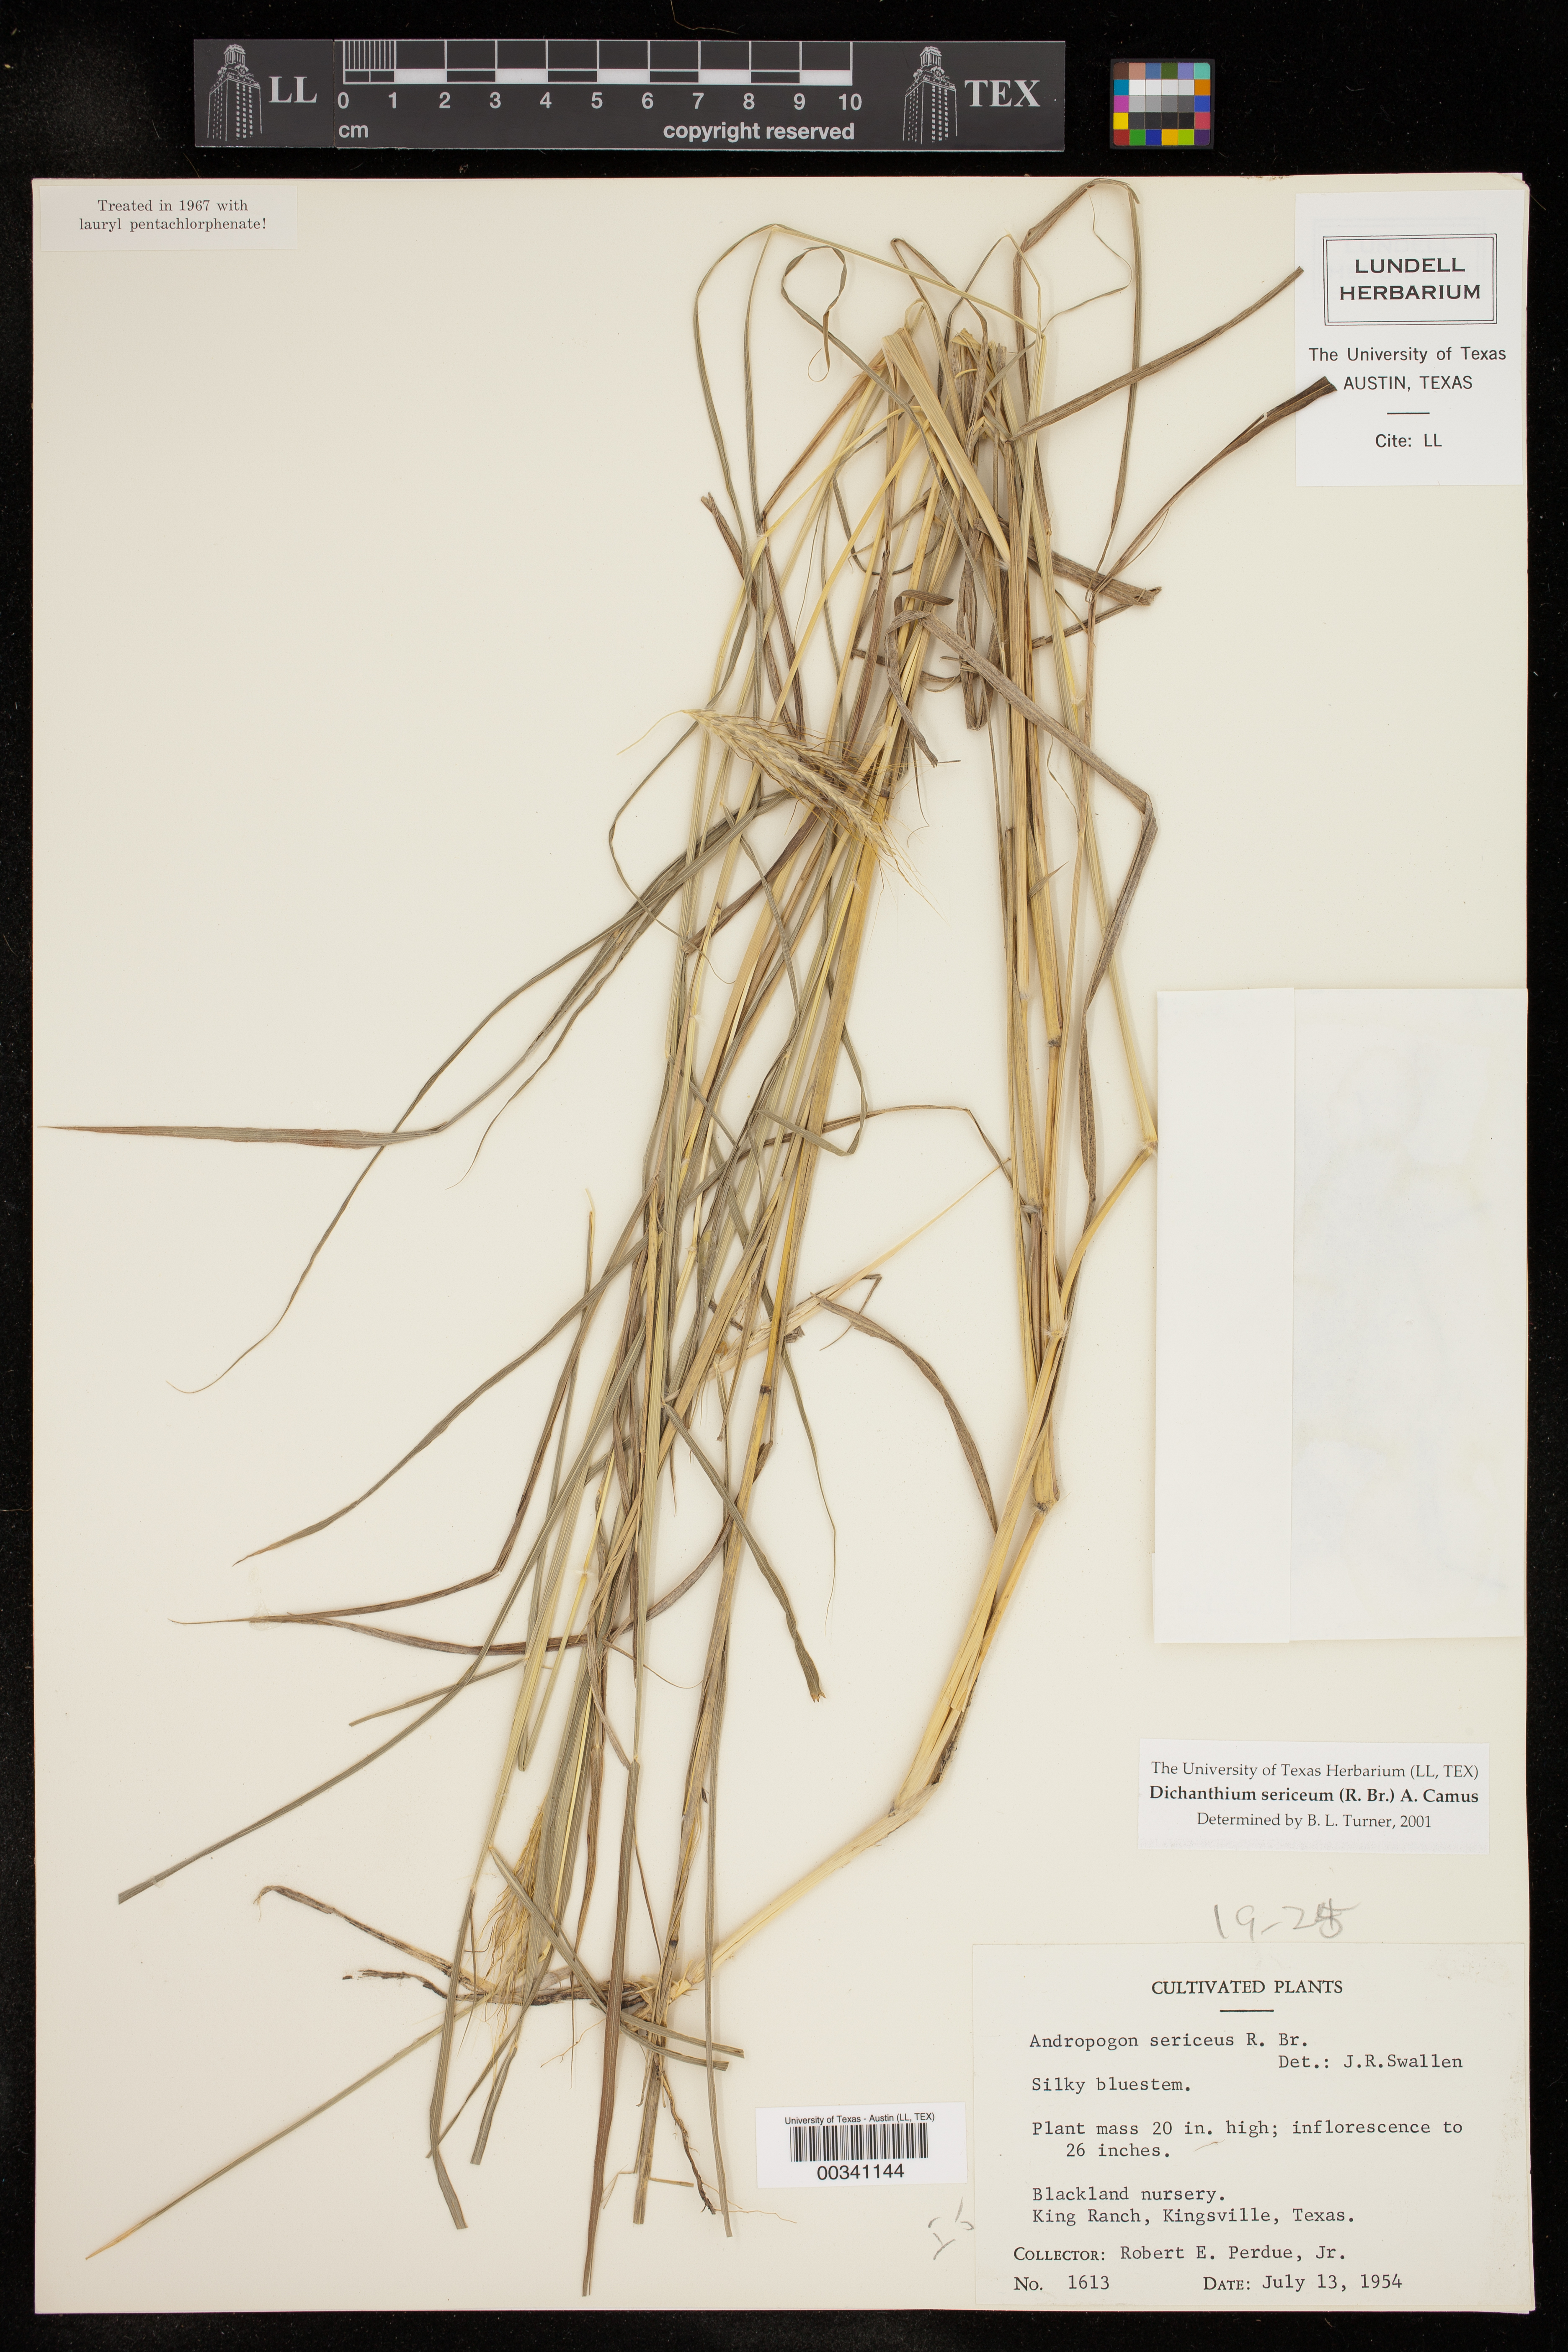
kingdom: Plantae
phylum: Tracheophyta
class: Liliopsida
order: Poales
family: Poaceae
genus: Dichanthium
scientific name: Dichanthium sericeum
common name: Silky bluestem
